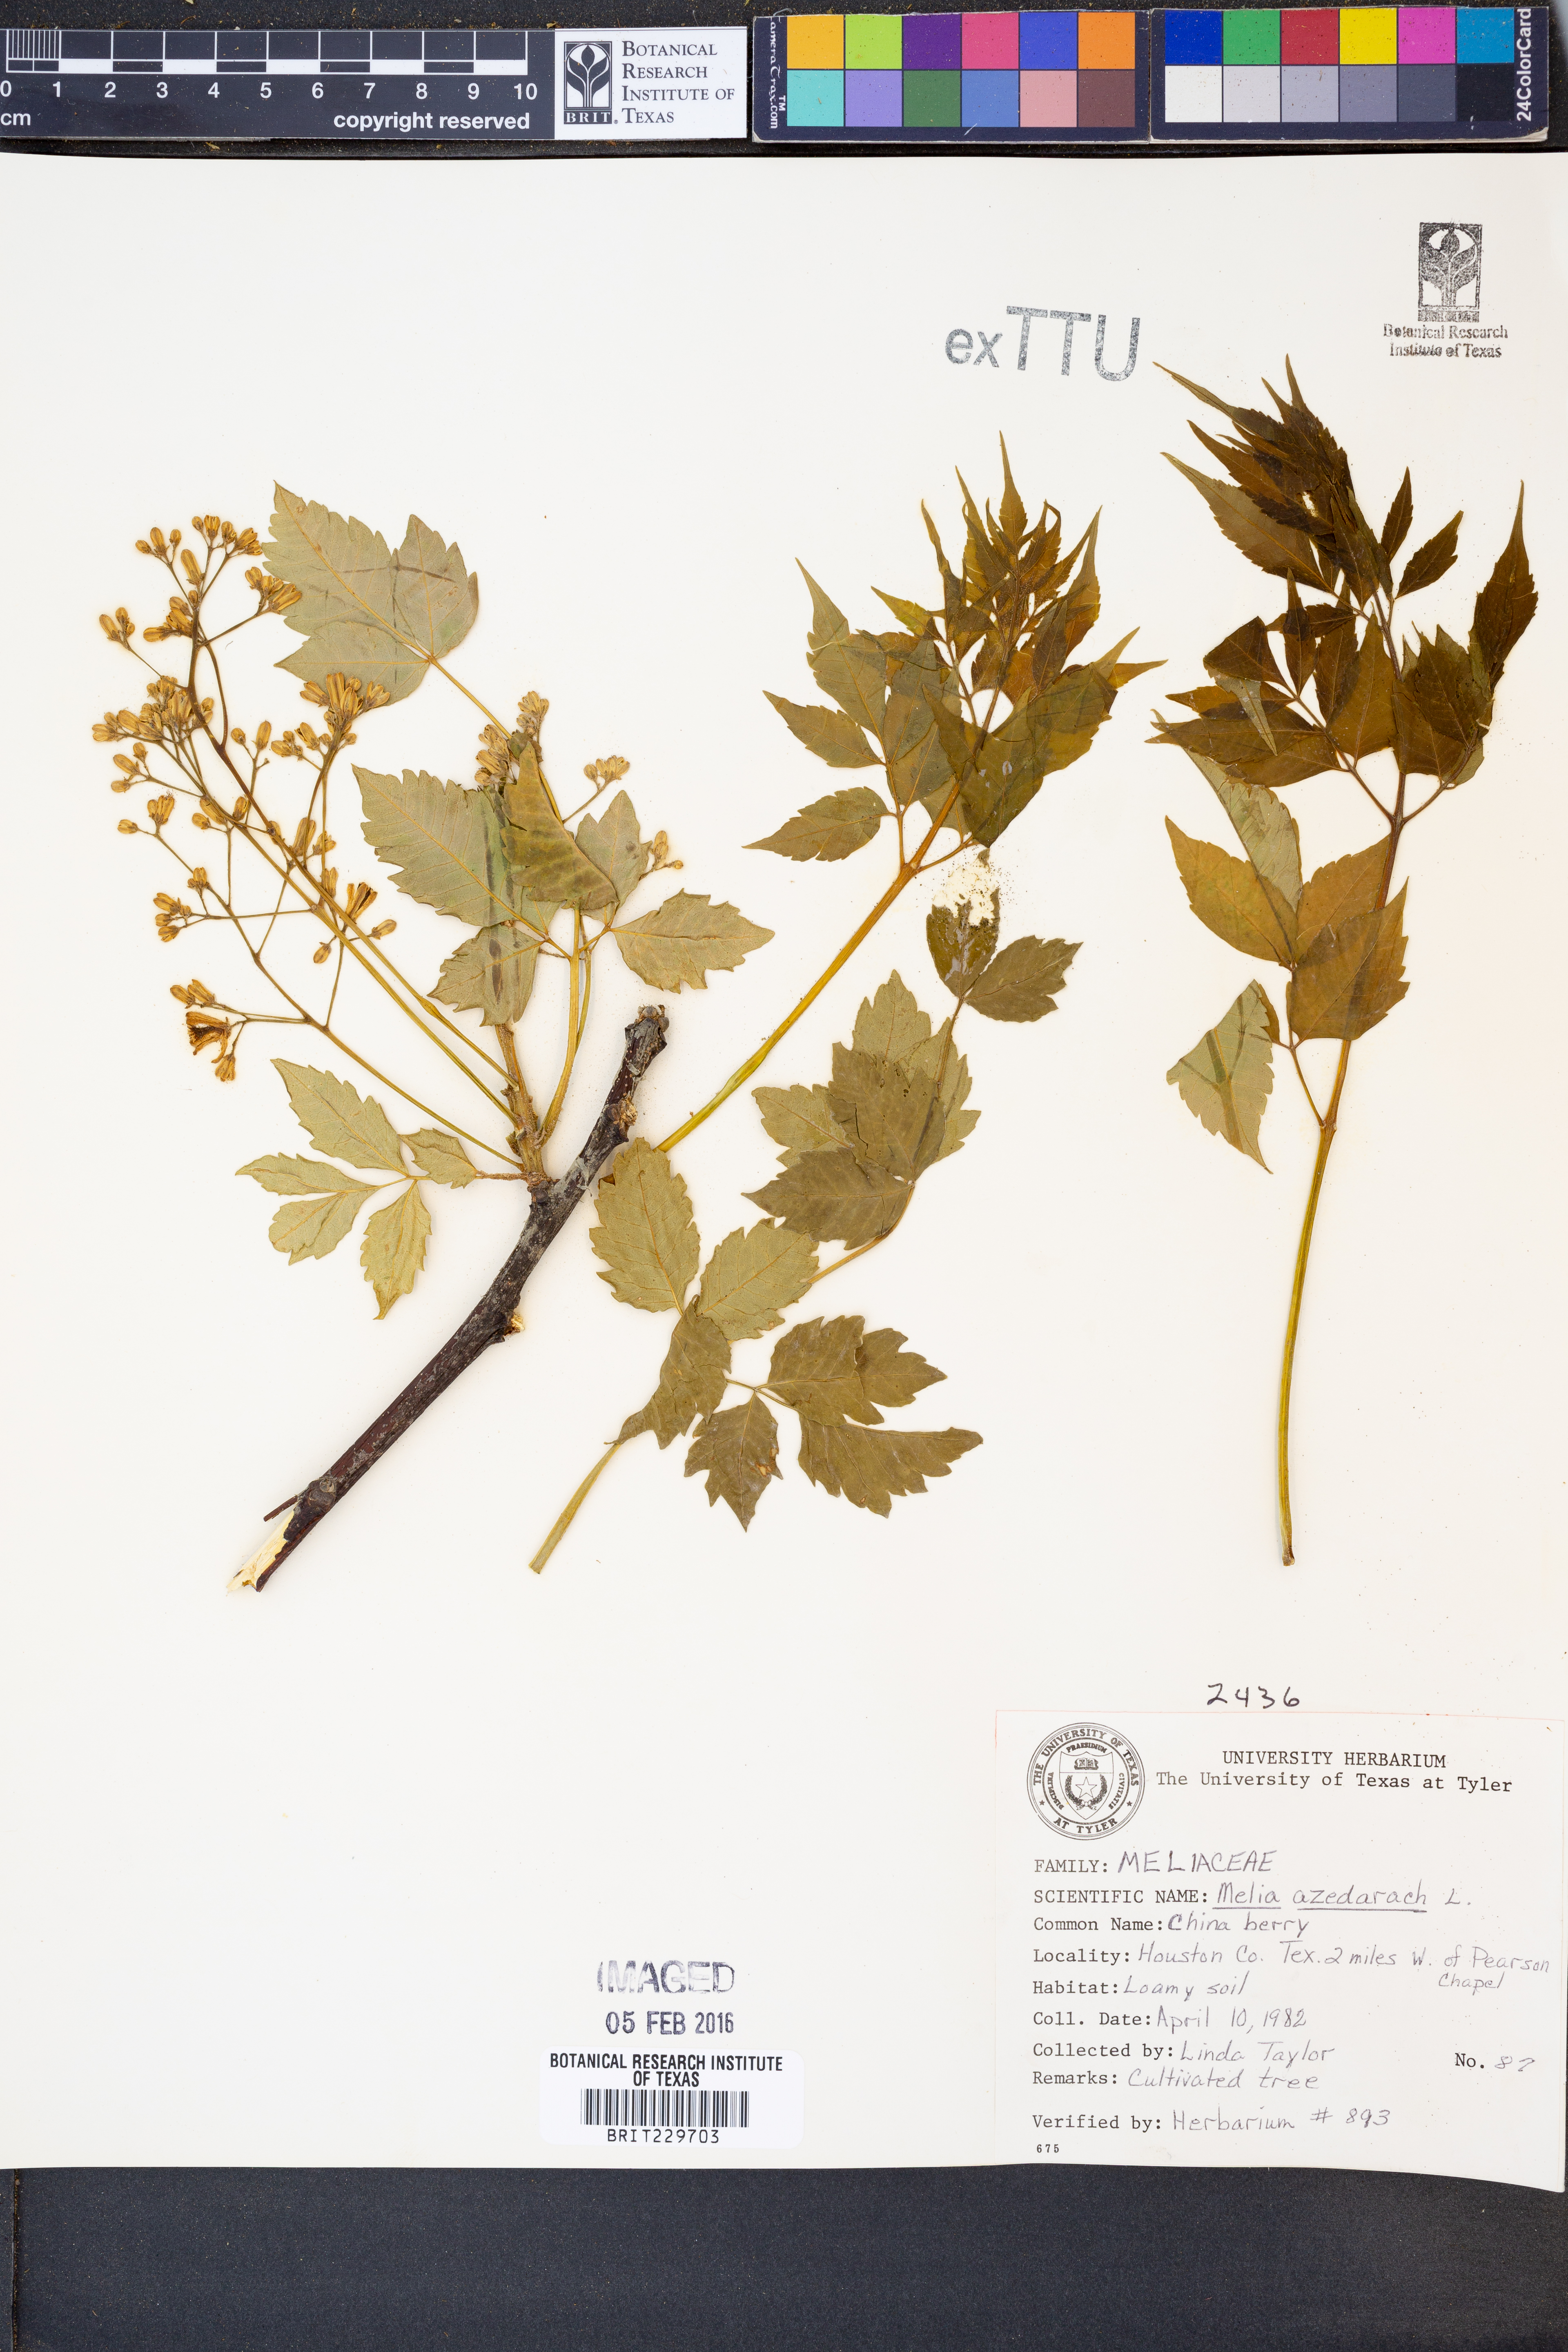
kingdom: Plantae
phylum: Tracheophyta
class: Magnoliopsida
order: Sapindales
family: Meliaceae
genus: Melia
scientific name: Melia azedarach
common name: Chinaberrytree
